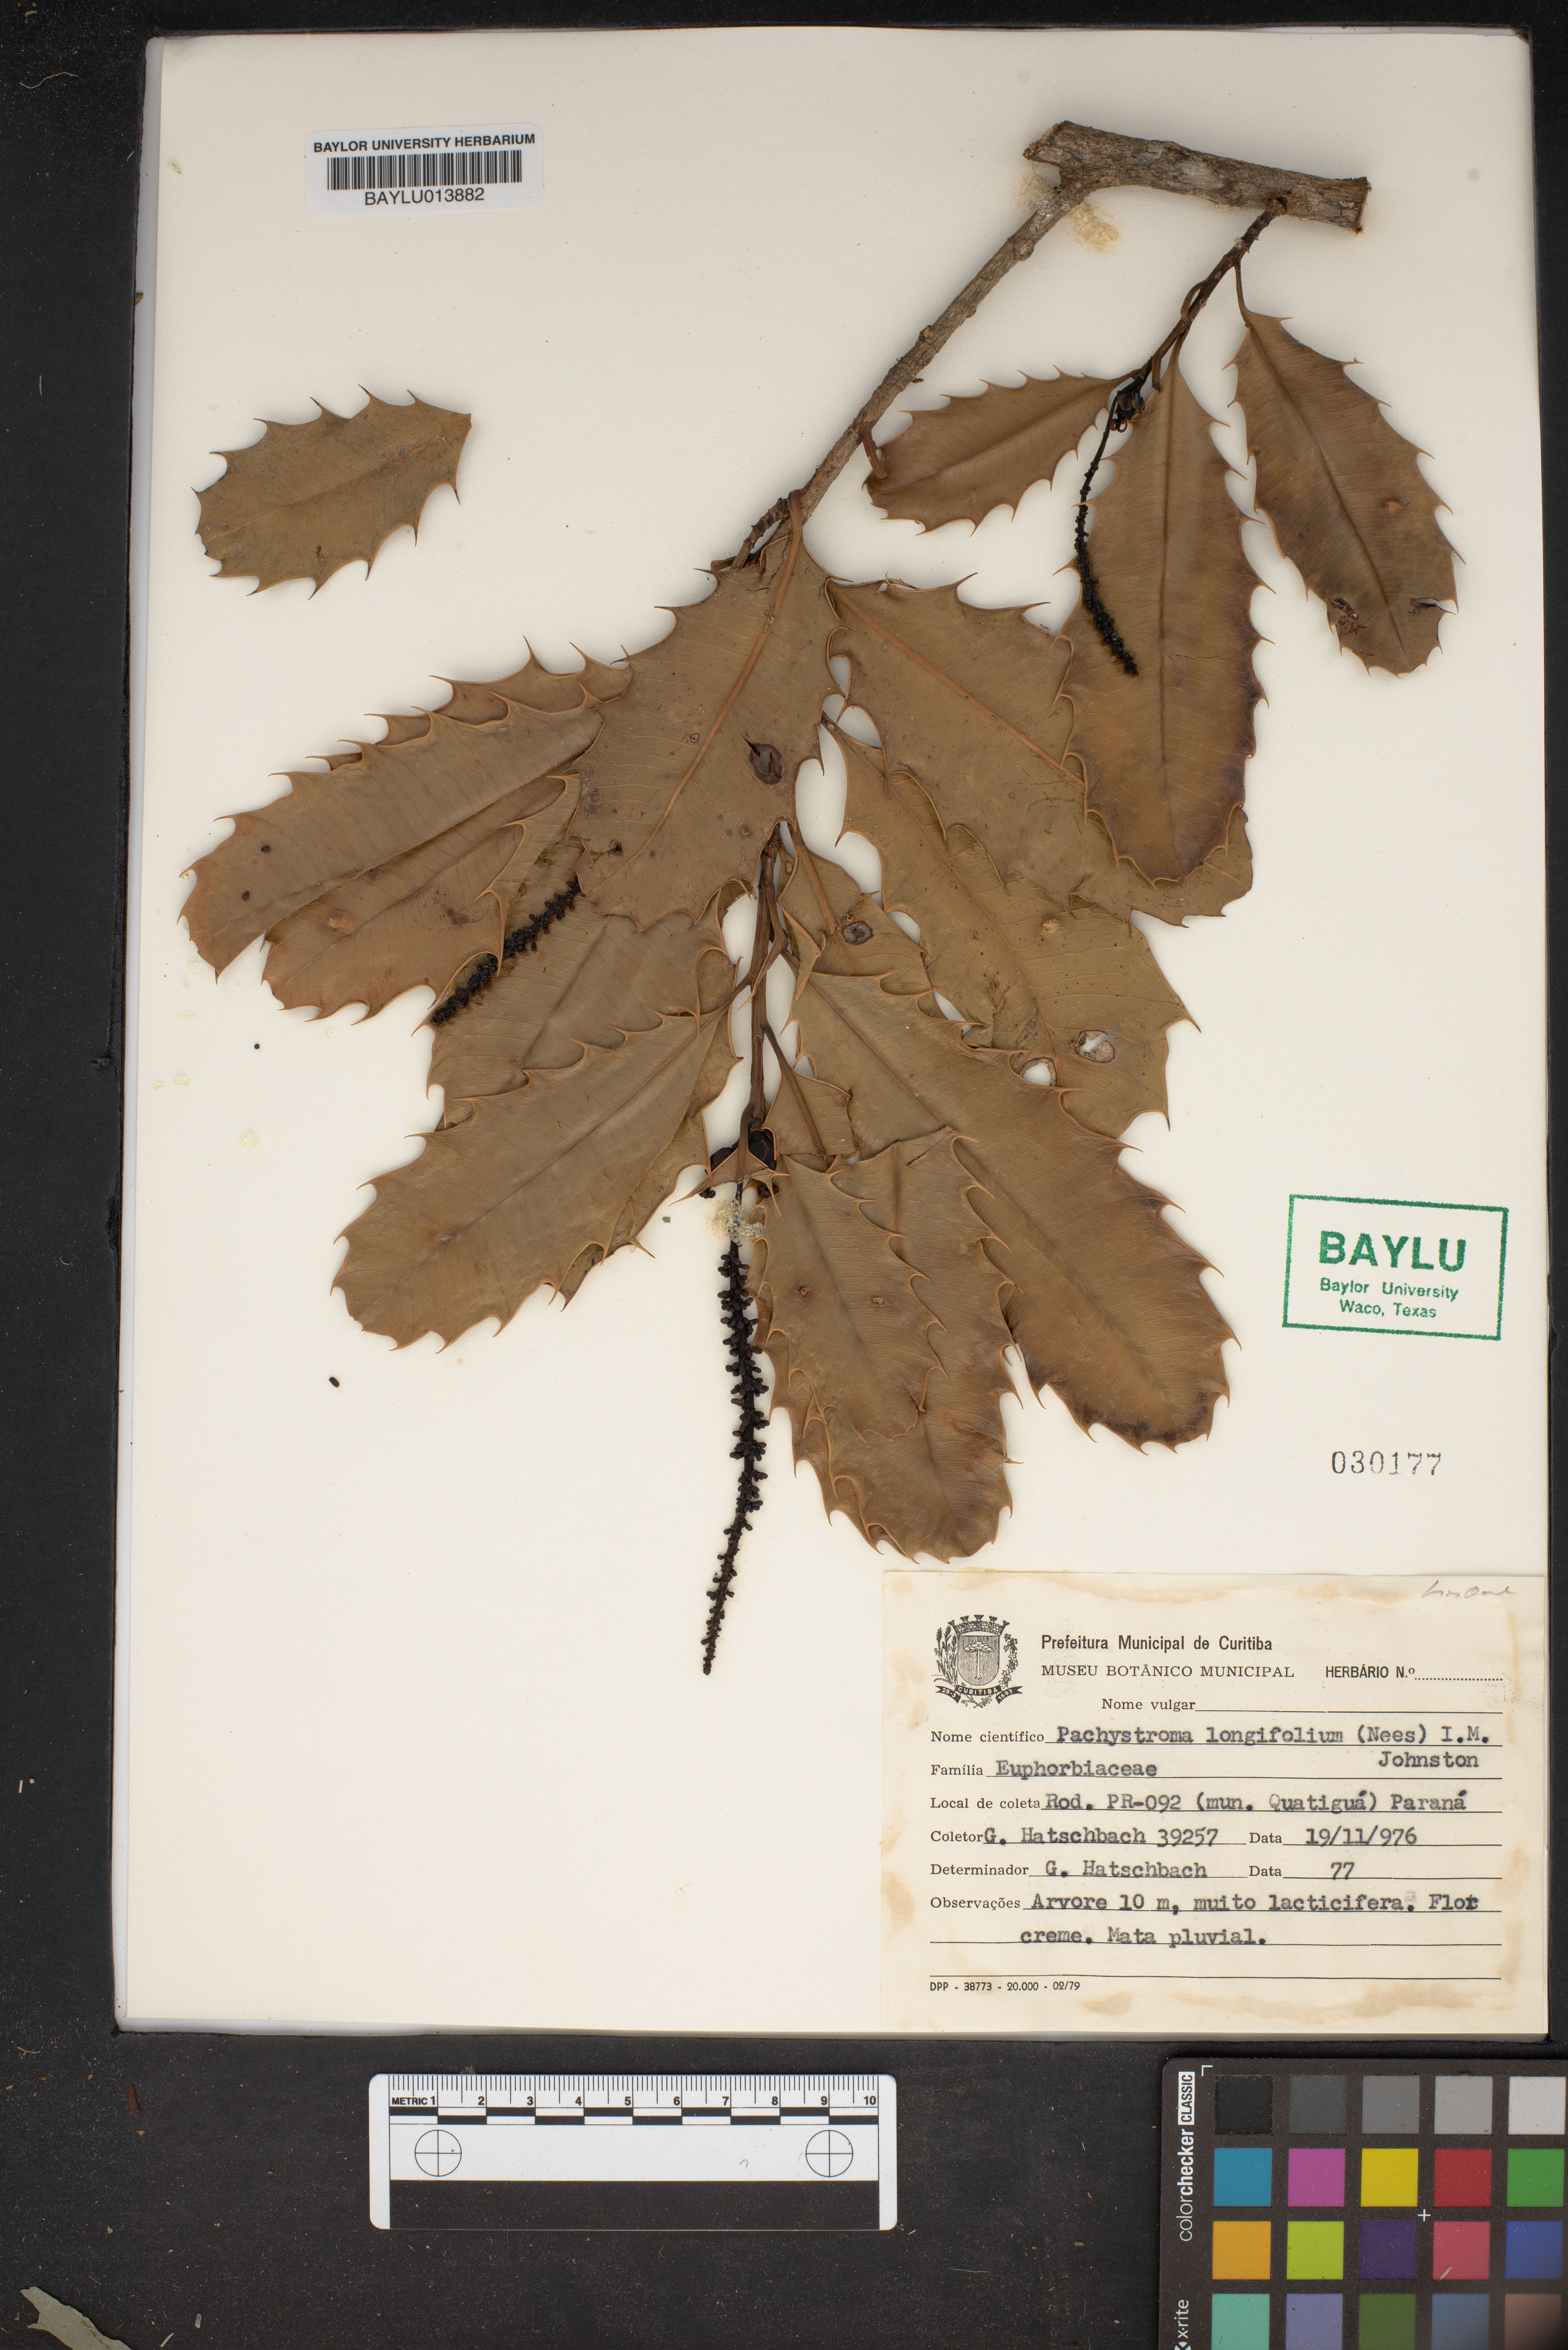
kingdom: Plantae
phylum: Tracheophyta
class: Magnoliopsida
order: Malpighiales
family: Euphorbiaceae
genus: Pachystroma
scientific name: Pachystroma longifolium
